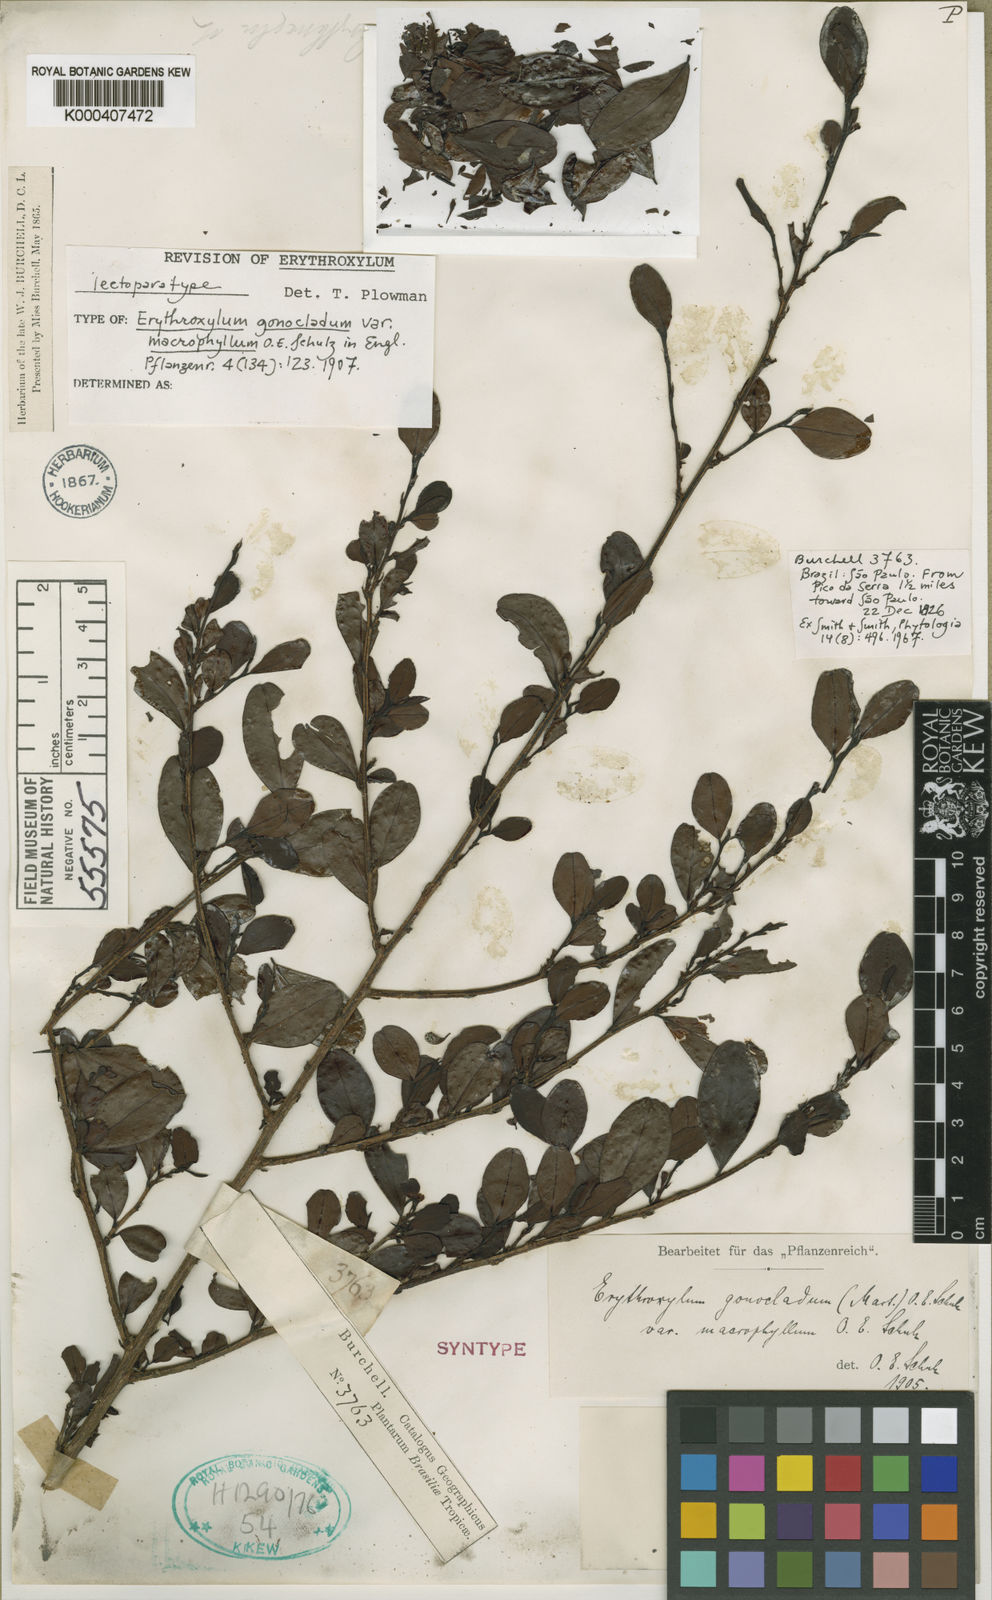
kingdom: Plantae
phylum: Tracheophyta
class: Magnoliopsida
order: Malpighiales
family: Erythroxylaceae
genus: Erythroxylum
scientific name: Erythroxylum
